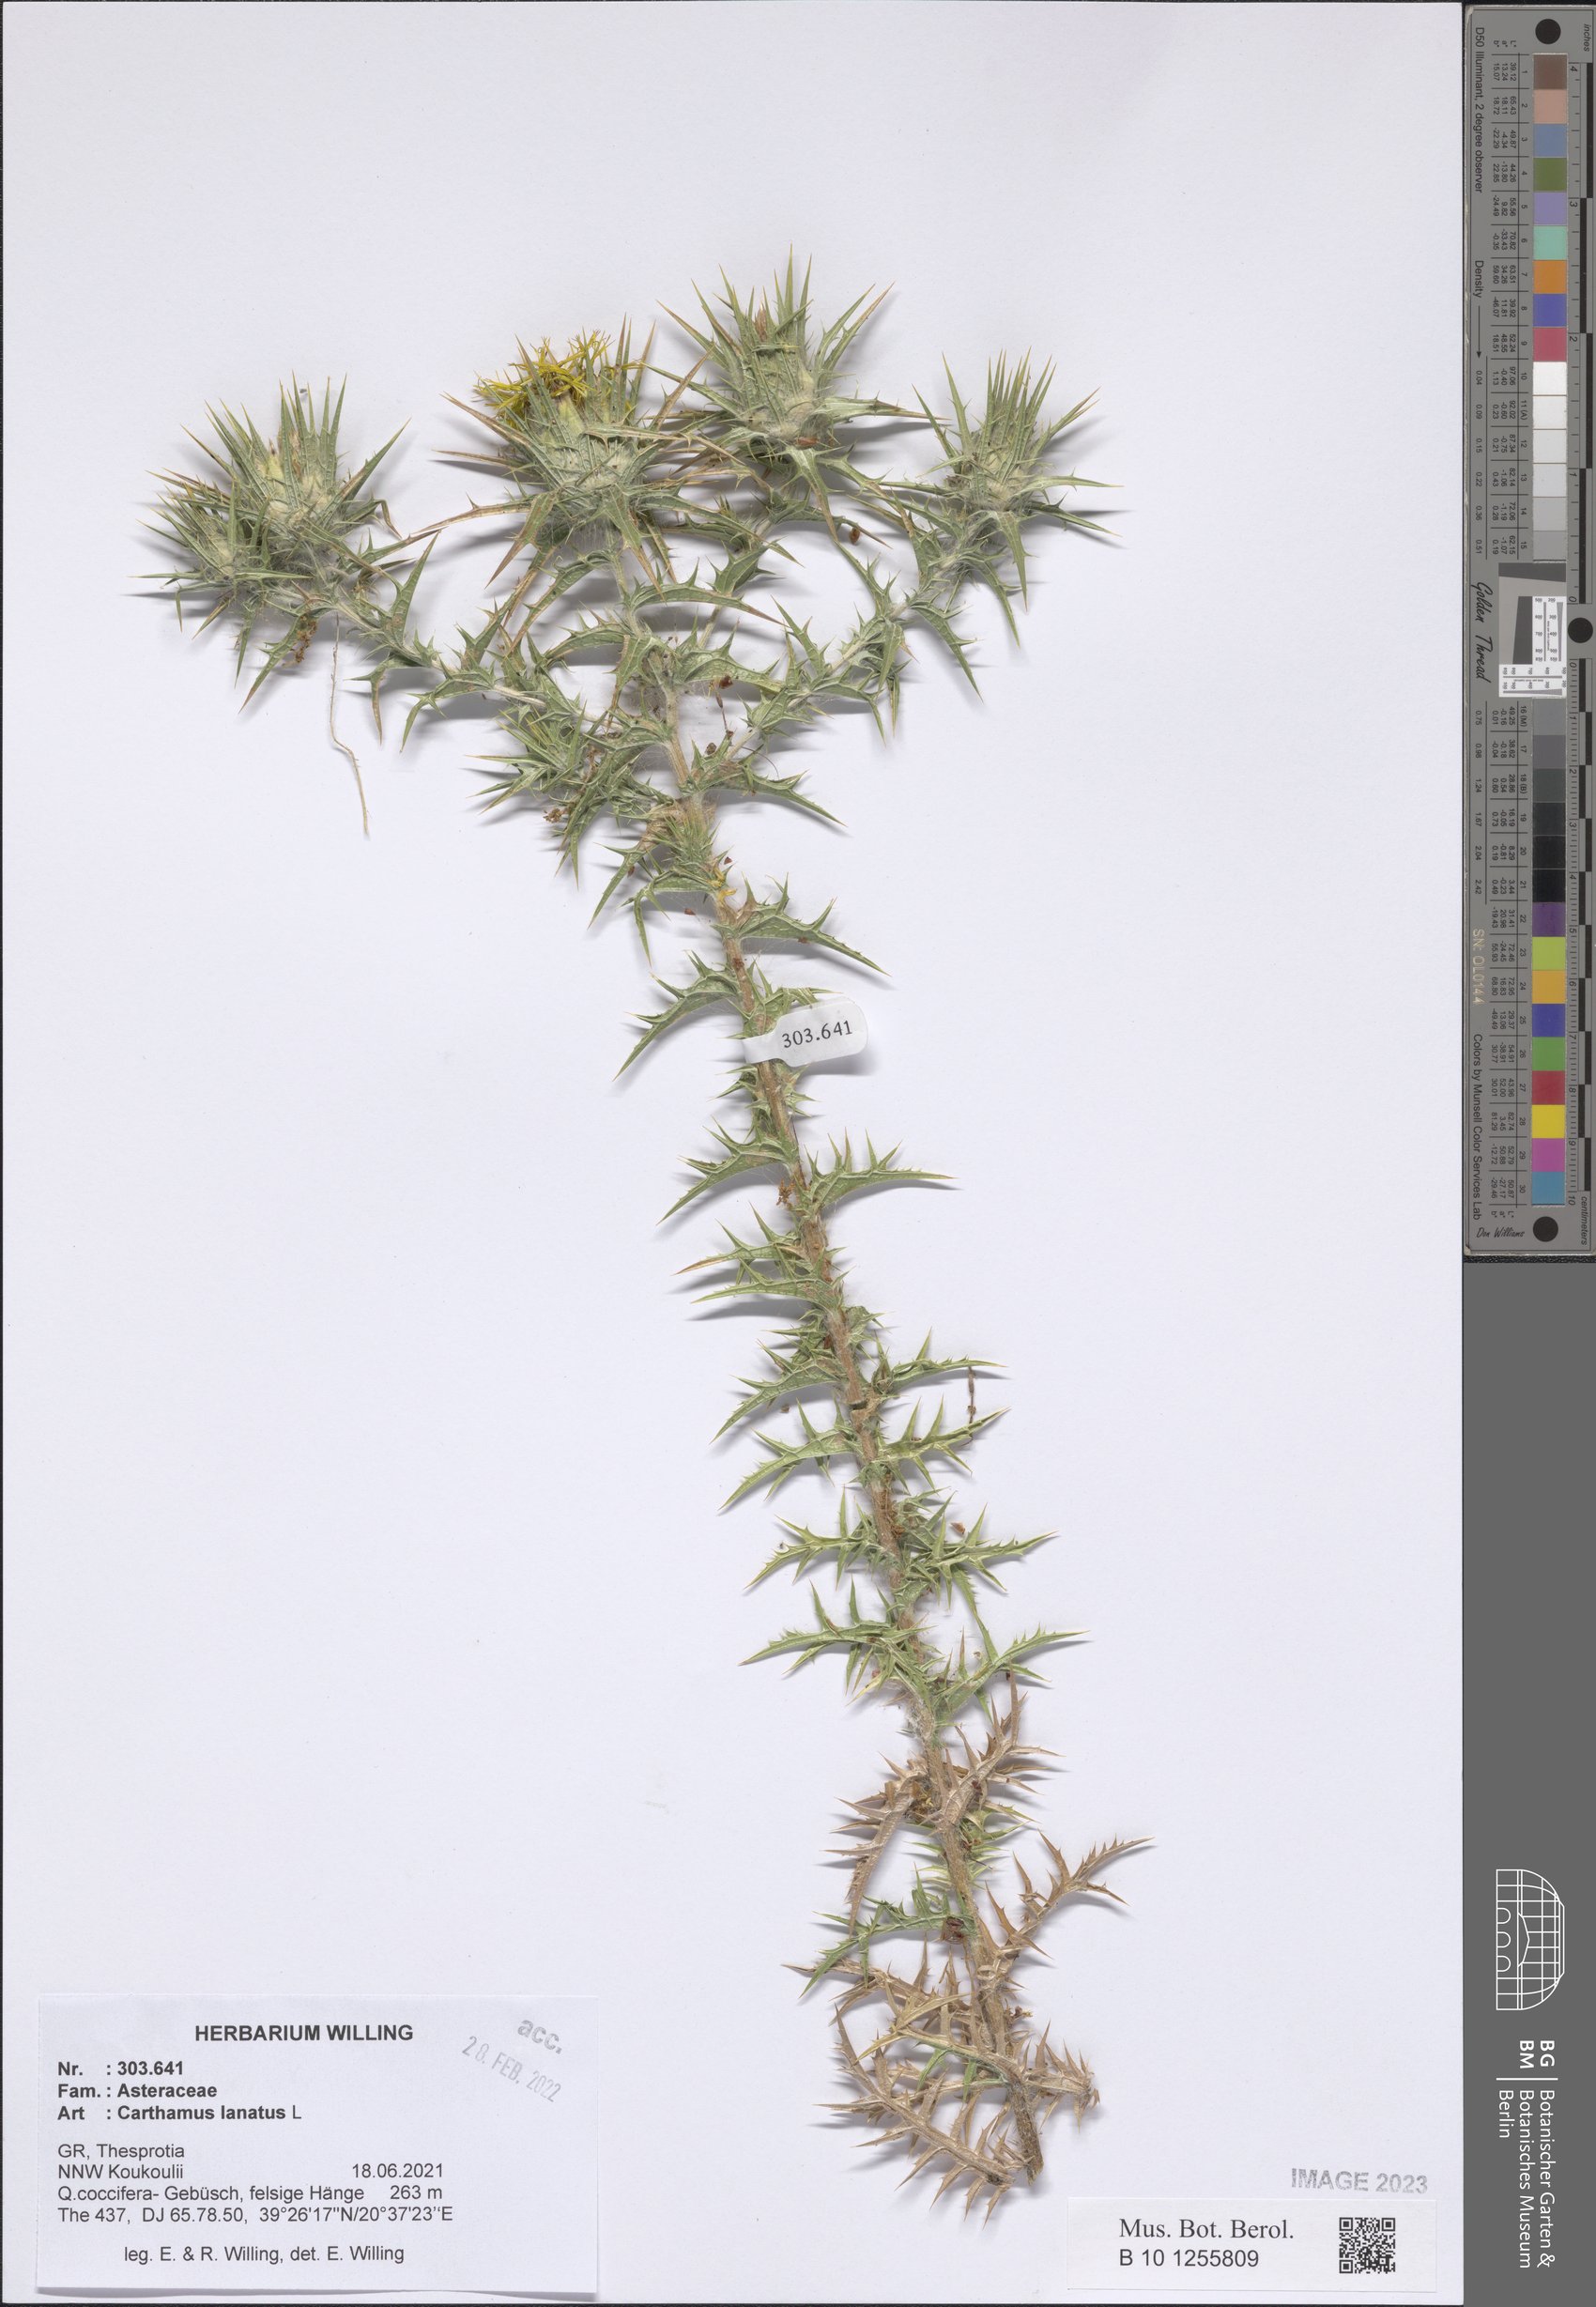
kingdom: Plantae
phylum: Tracheophyta
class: Magnoliopsida
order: Asterales
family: Asteraceae
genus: Carthamus
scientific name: Carthamus lanatus
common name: Downy safflower
